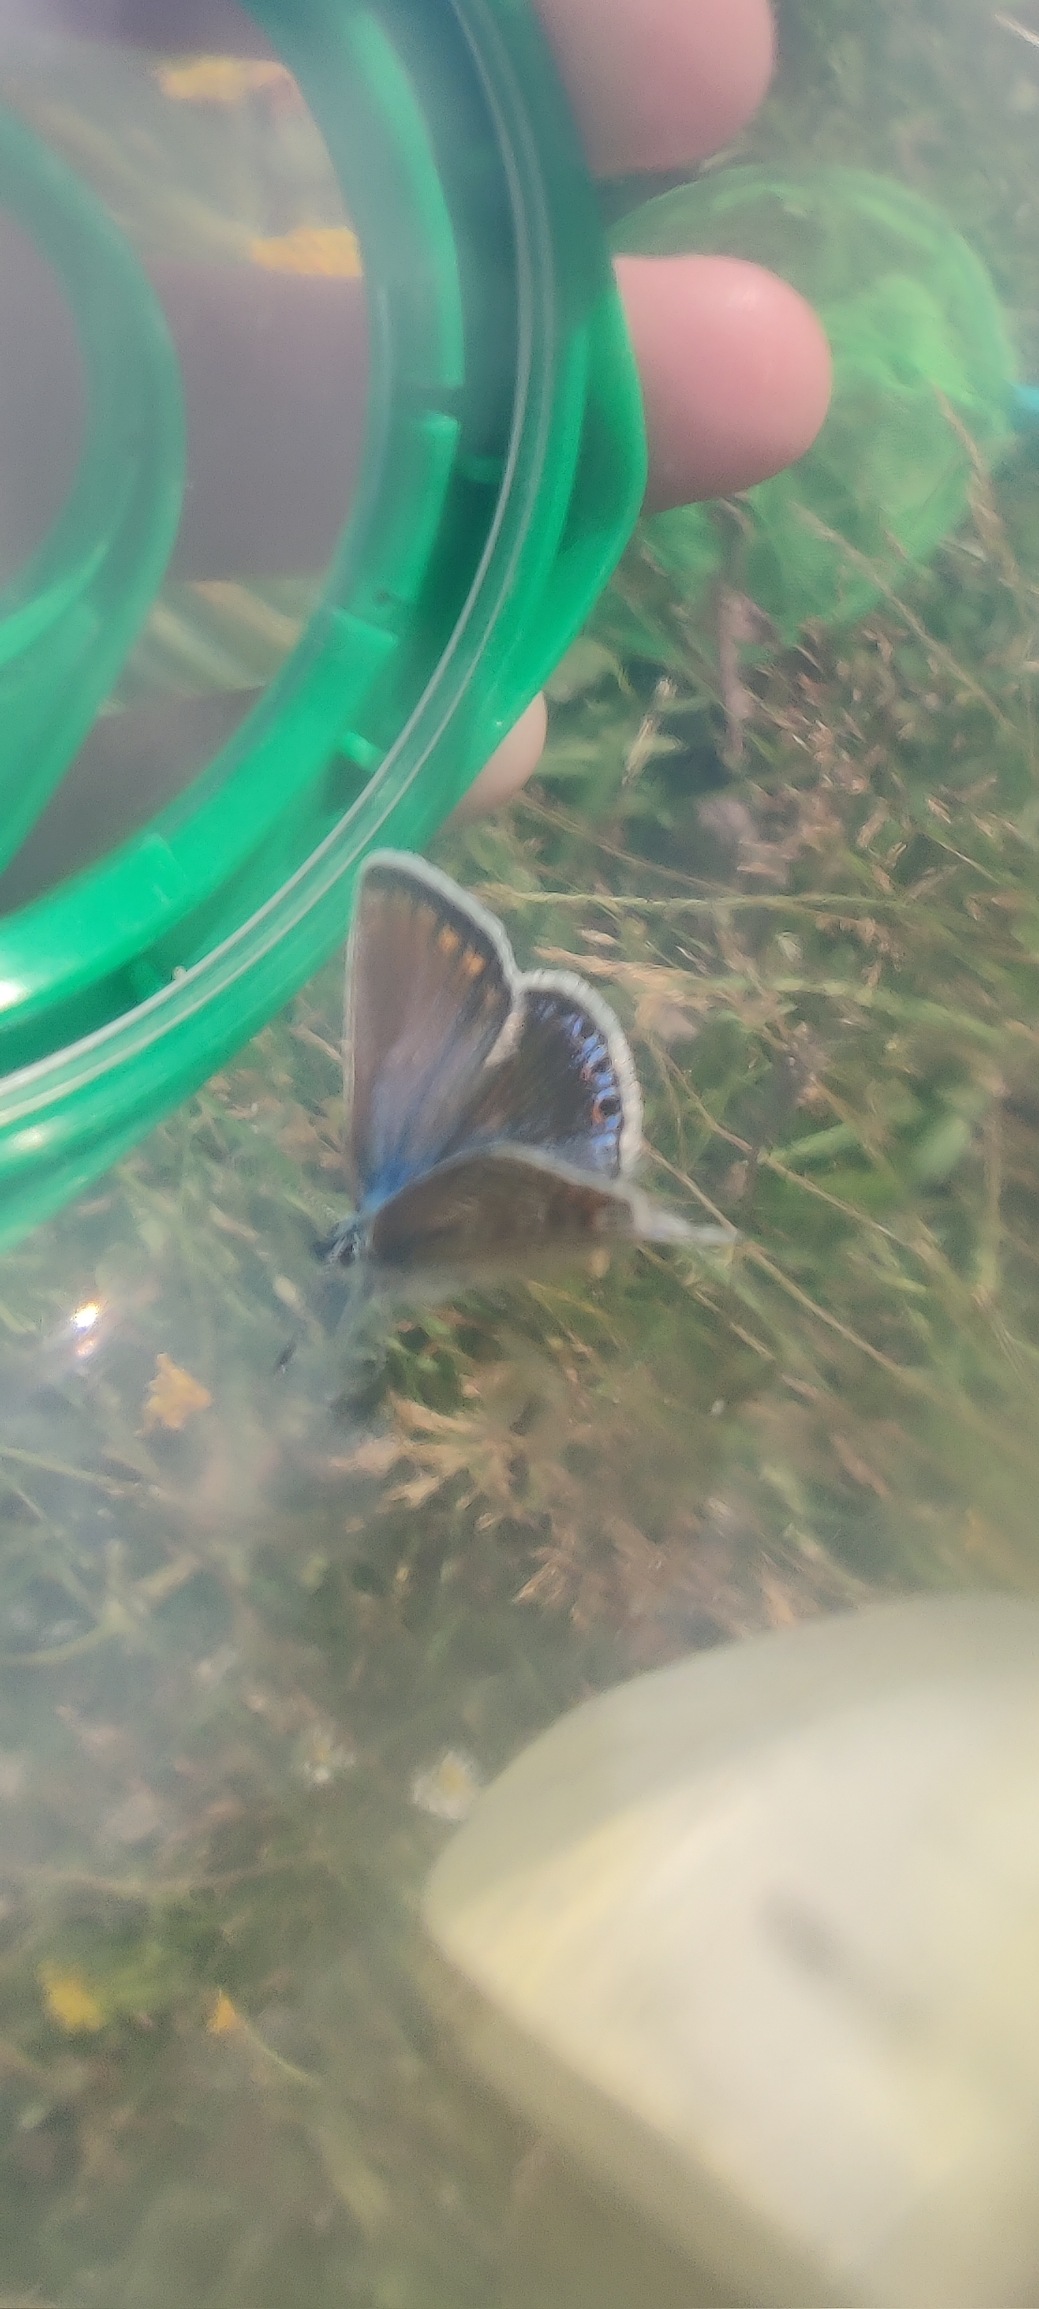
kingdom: Animalia
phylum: Arthropoda
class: Insecta
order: Lepidoptera
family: Lycaenidae
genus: Polyommatus
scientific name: Polyommatus icarus
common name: Almindelig blåfugl
